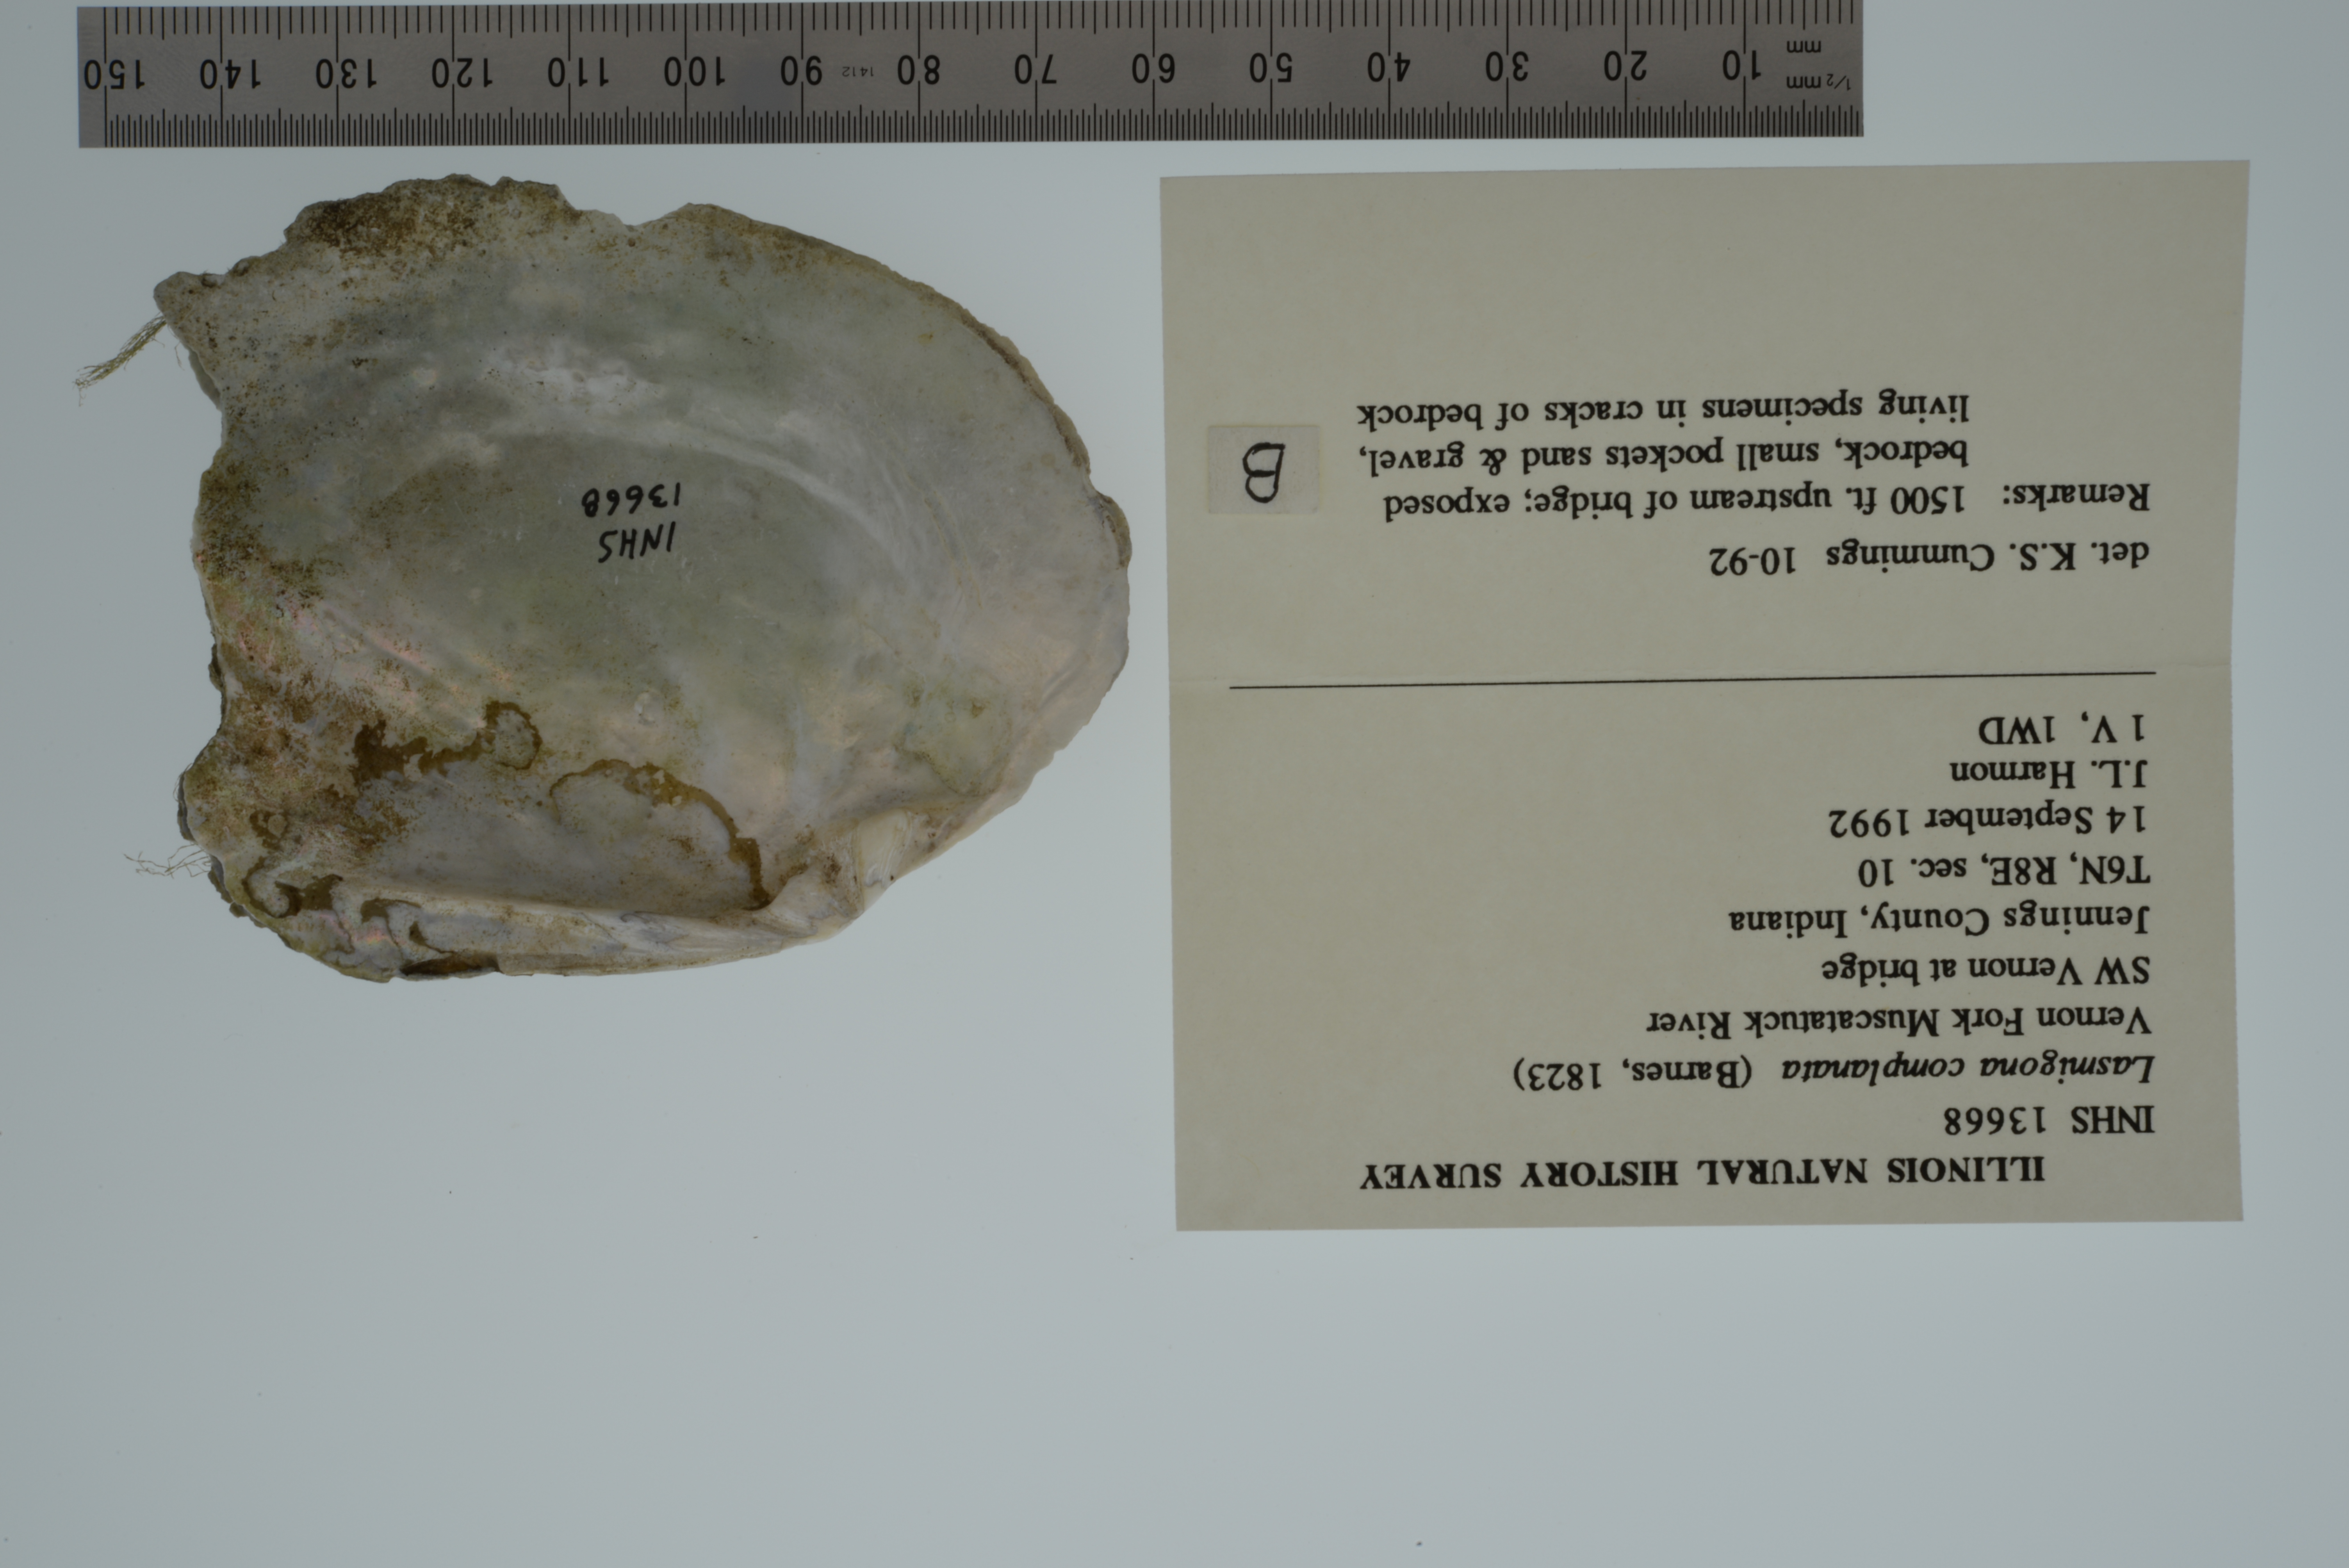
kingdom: Animalia
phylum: Mollusca
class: Bivalvia
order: Unionida
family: Unionidae
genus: Lasmigona
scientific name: Lasmigona complanata
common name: White heelsplitter
